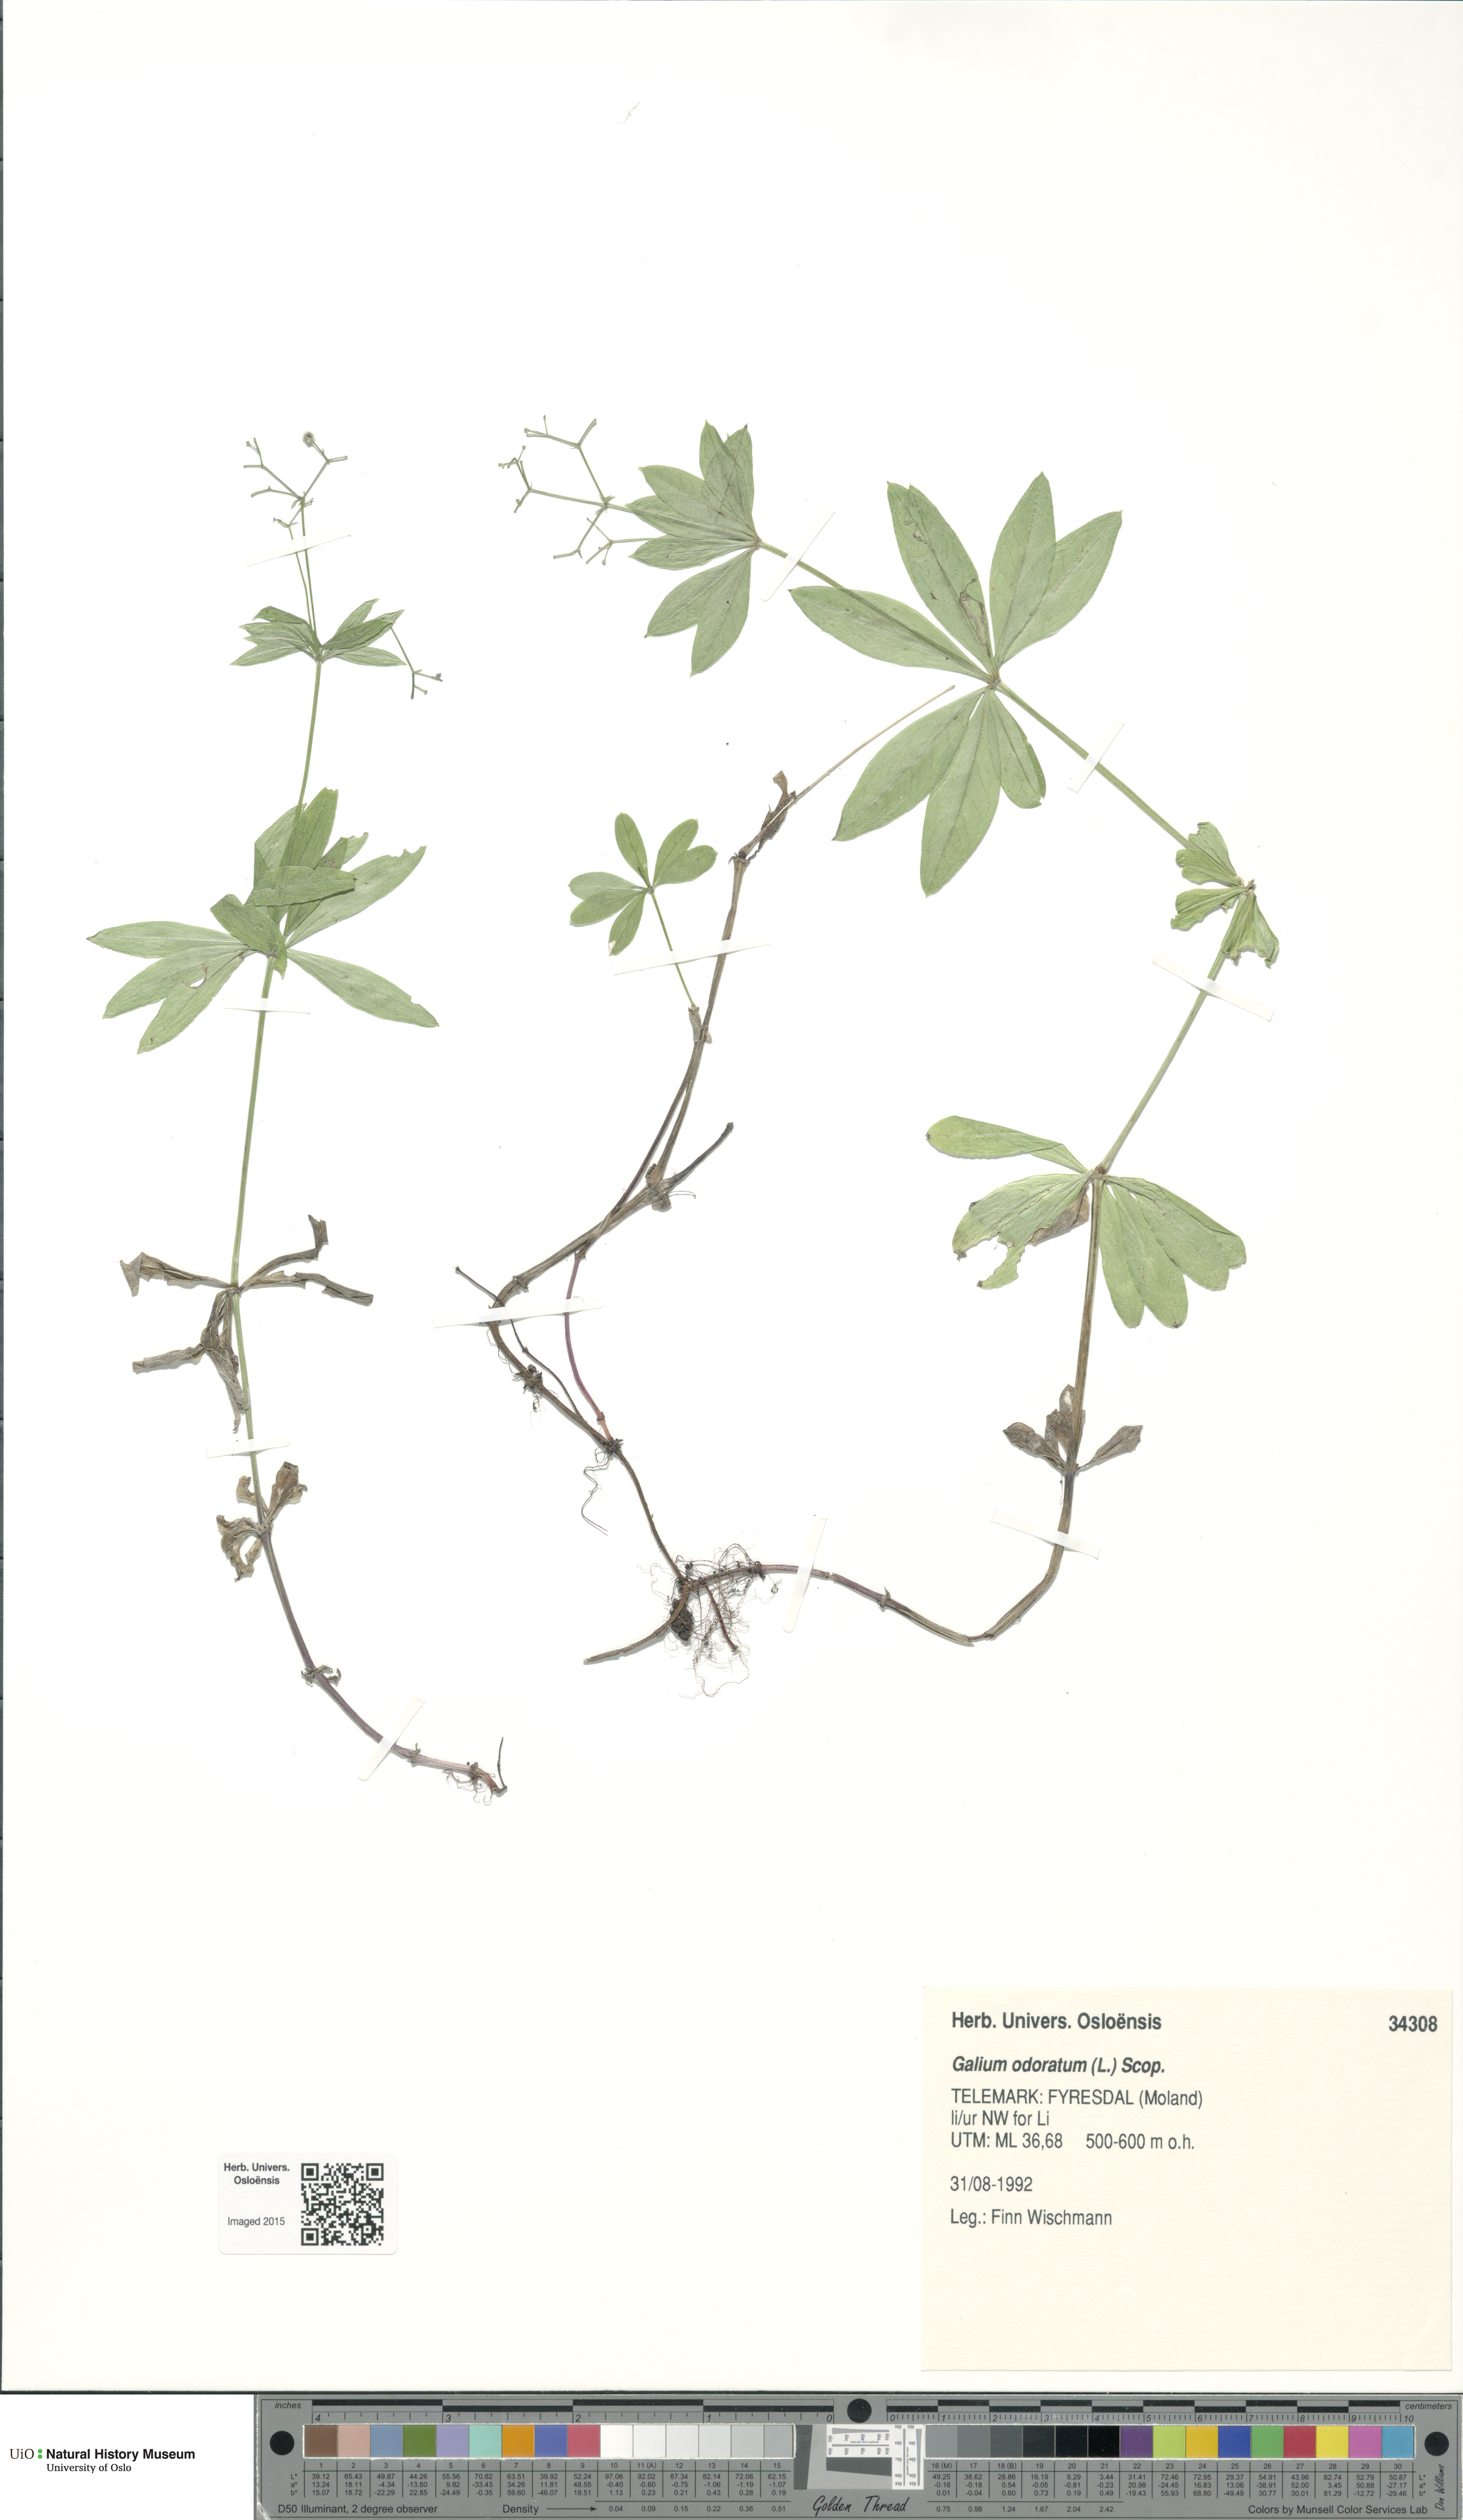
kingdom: Plantae
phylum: Tracheophyta
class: Magnoliopsida
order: Gentianales
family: Rubiaceae
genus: Galium
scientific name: Galium odoratum
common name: Sweet woodruff
